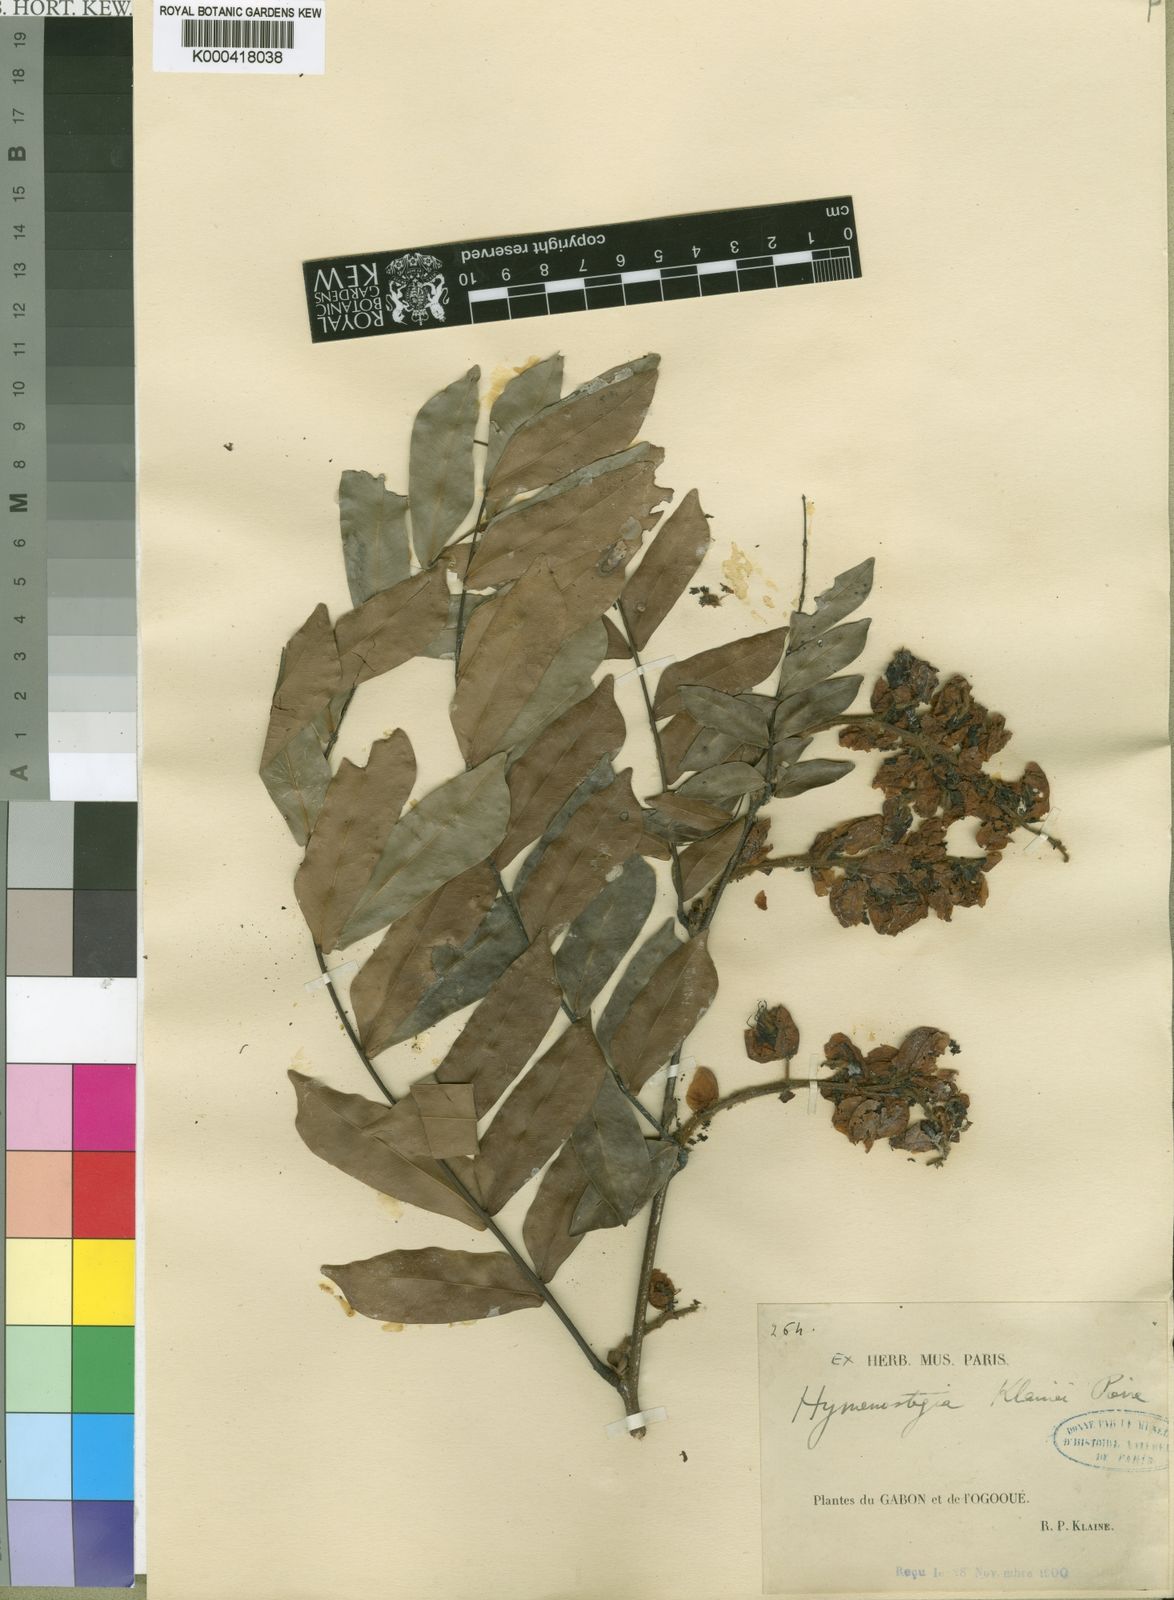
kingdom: Plantae
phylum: Tracheophyta
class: Magnoliopsida
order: Fabales
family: Fabaceae
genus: Hymenostegia
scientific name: Hymenostegia klainei
